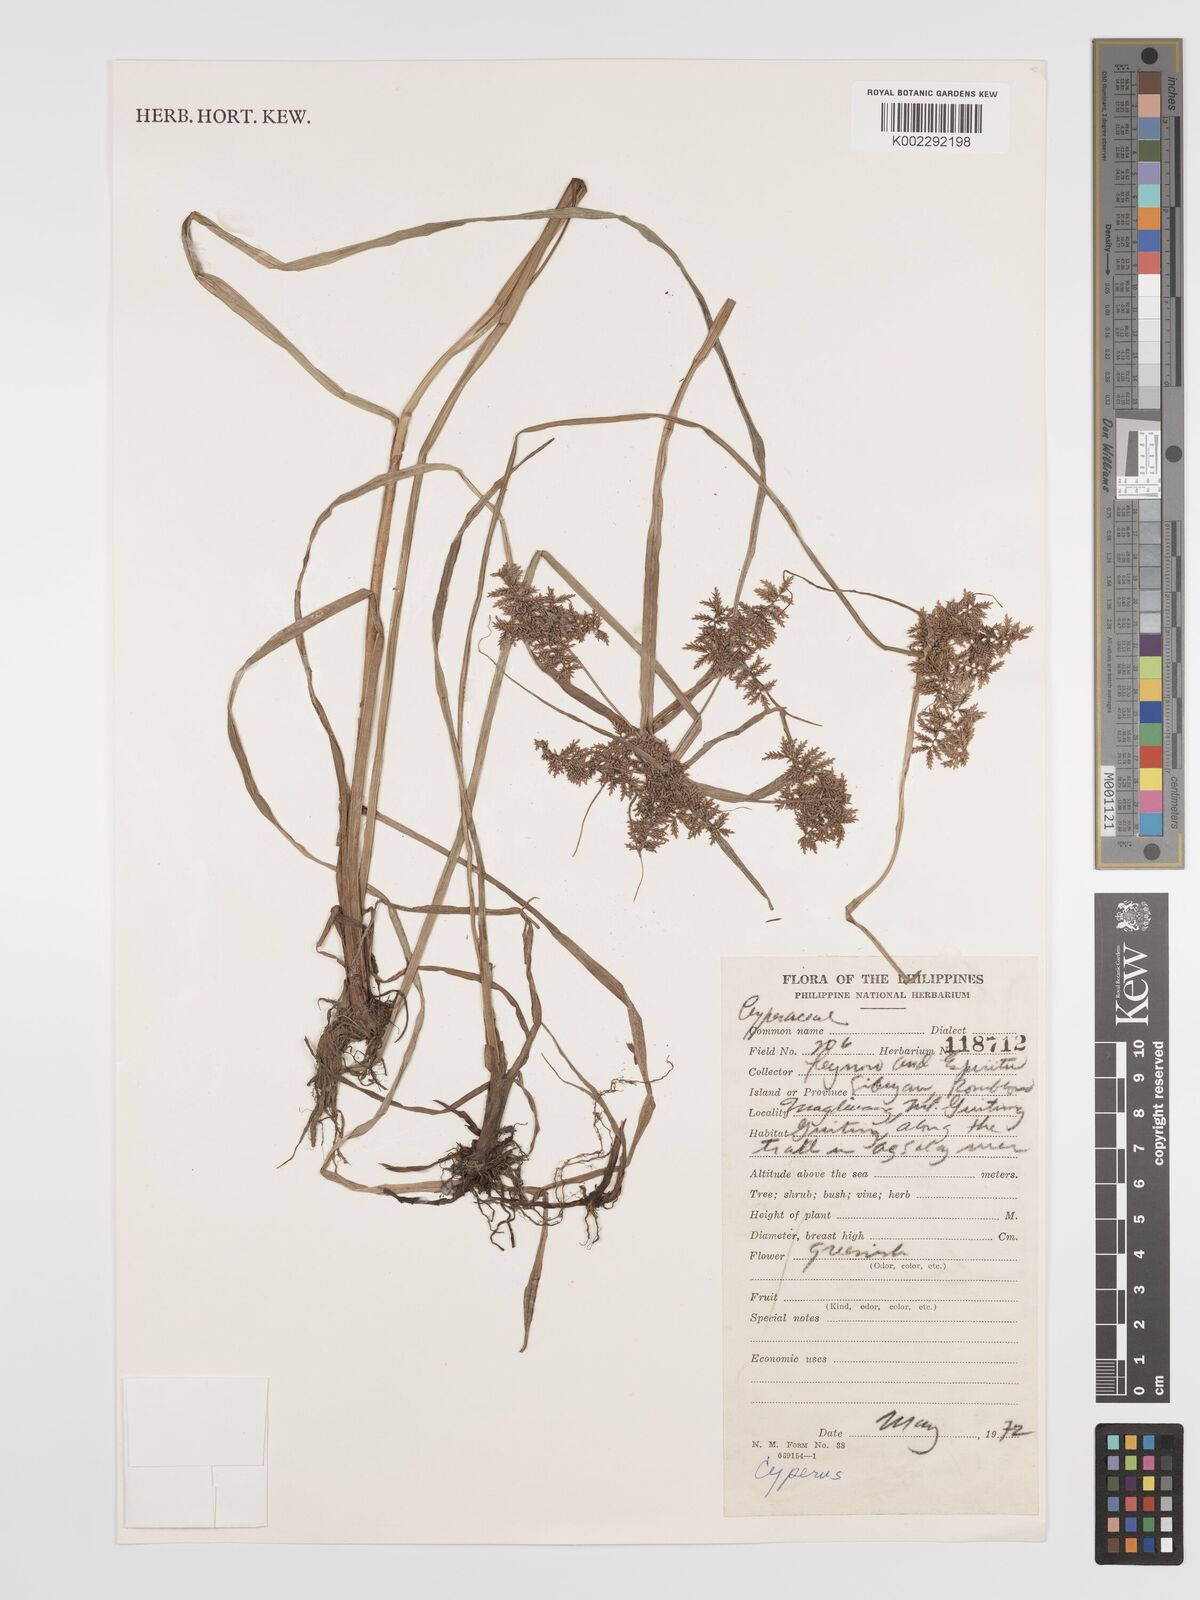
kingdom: Plantae
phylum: Tracheophyta
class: Liliopsida
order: Poales
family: Cyperaceae
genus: Cyperus
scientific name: Cyperus
